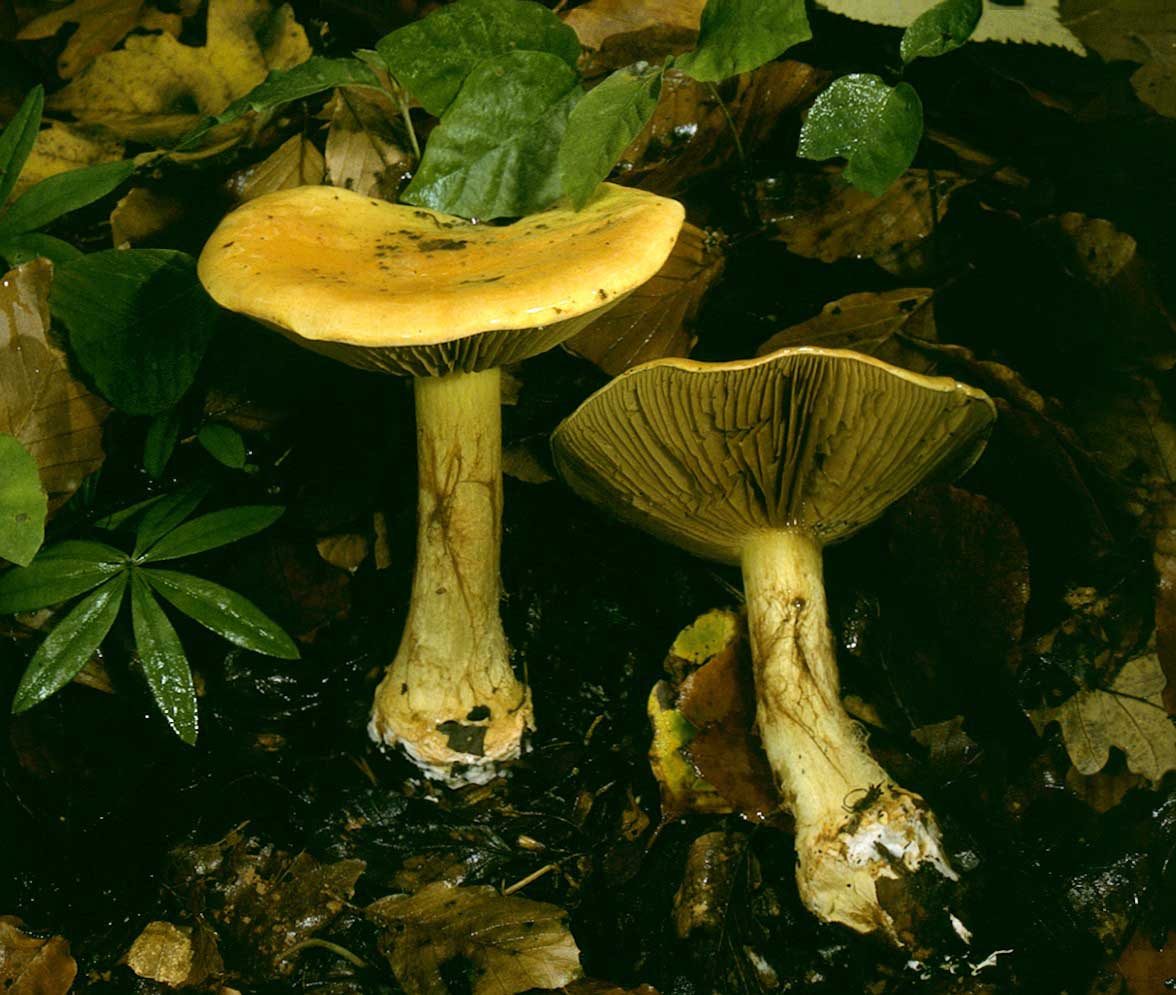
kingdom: Fungi
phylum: Basidiomycota
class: Agaricomycetes
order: Agaricales
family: Cortinariaceae
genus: Calonarius
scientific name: Calonarius elegantissimus
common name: orangegylden slørhat
